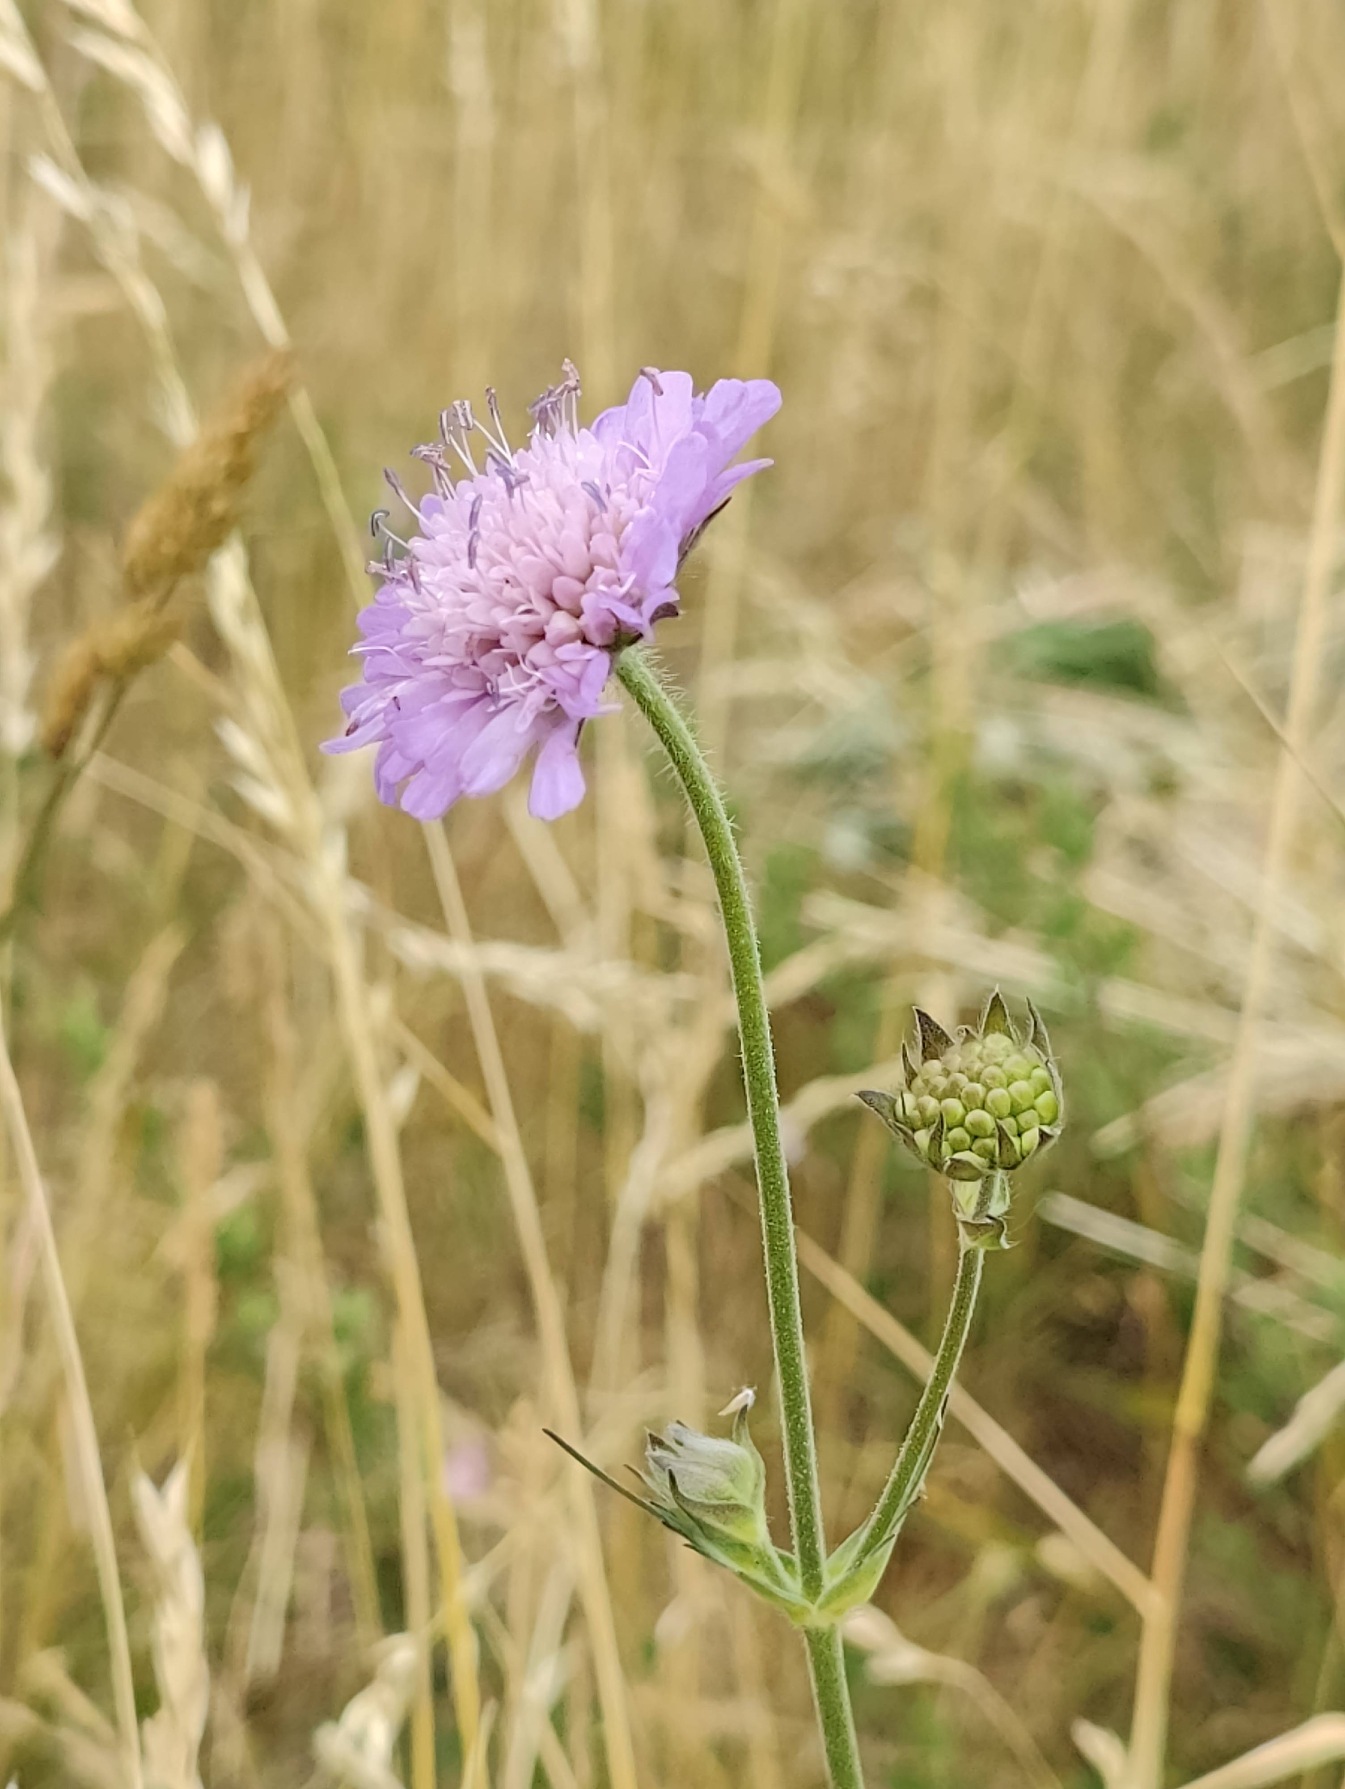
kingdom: Plantae
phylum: Tracheophyta
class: Magnoliopsida
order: Dipsacales
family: Caprifoliaceae
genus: Knautia
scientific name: Knautia arvensis
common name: Blåhat
